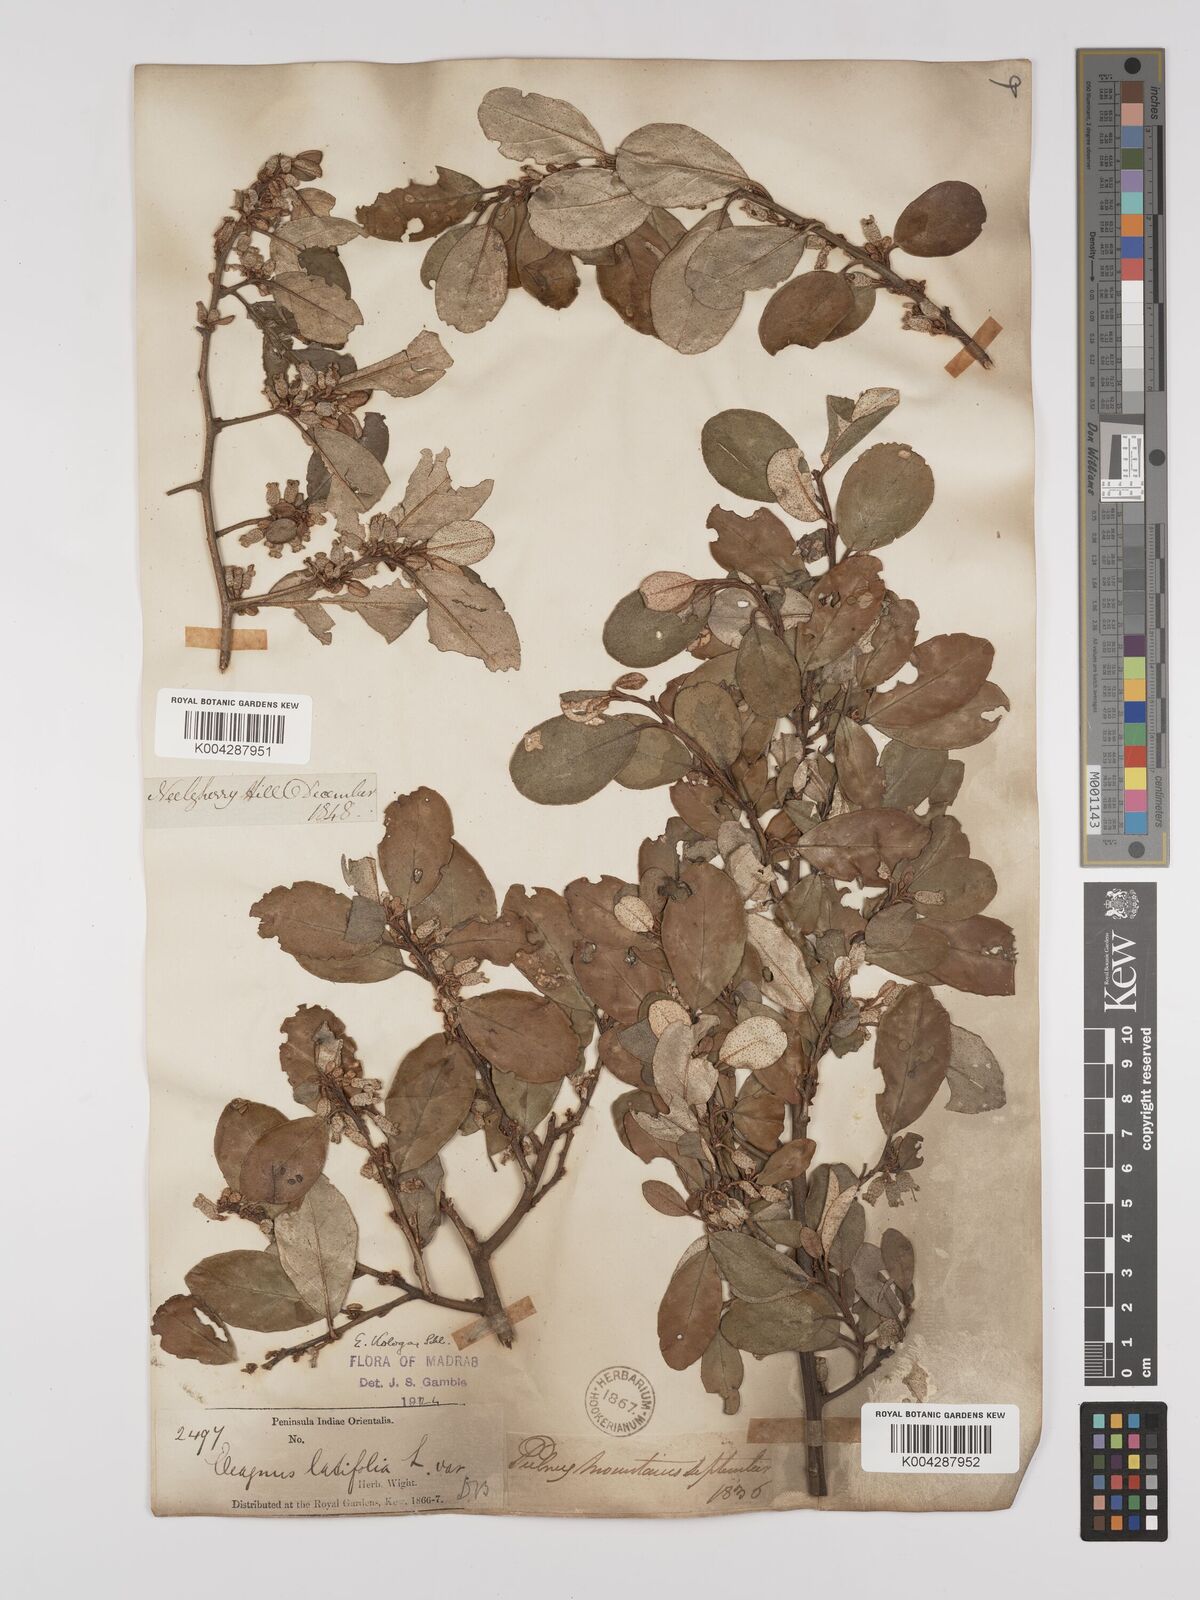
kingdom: Plantae
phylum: Tracheophyta
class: Magnoliopsida
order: Rosales
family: Elaeagnaceae
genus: Elaeagnus
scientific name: Elaeagnus latifolia
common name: Oleaster
